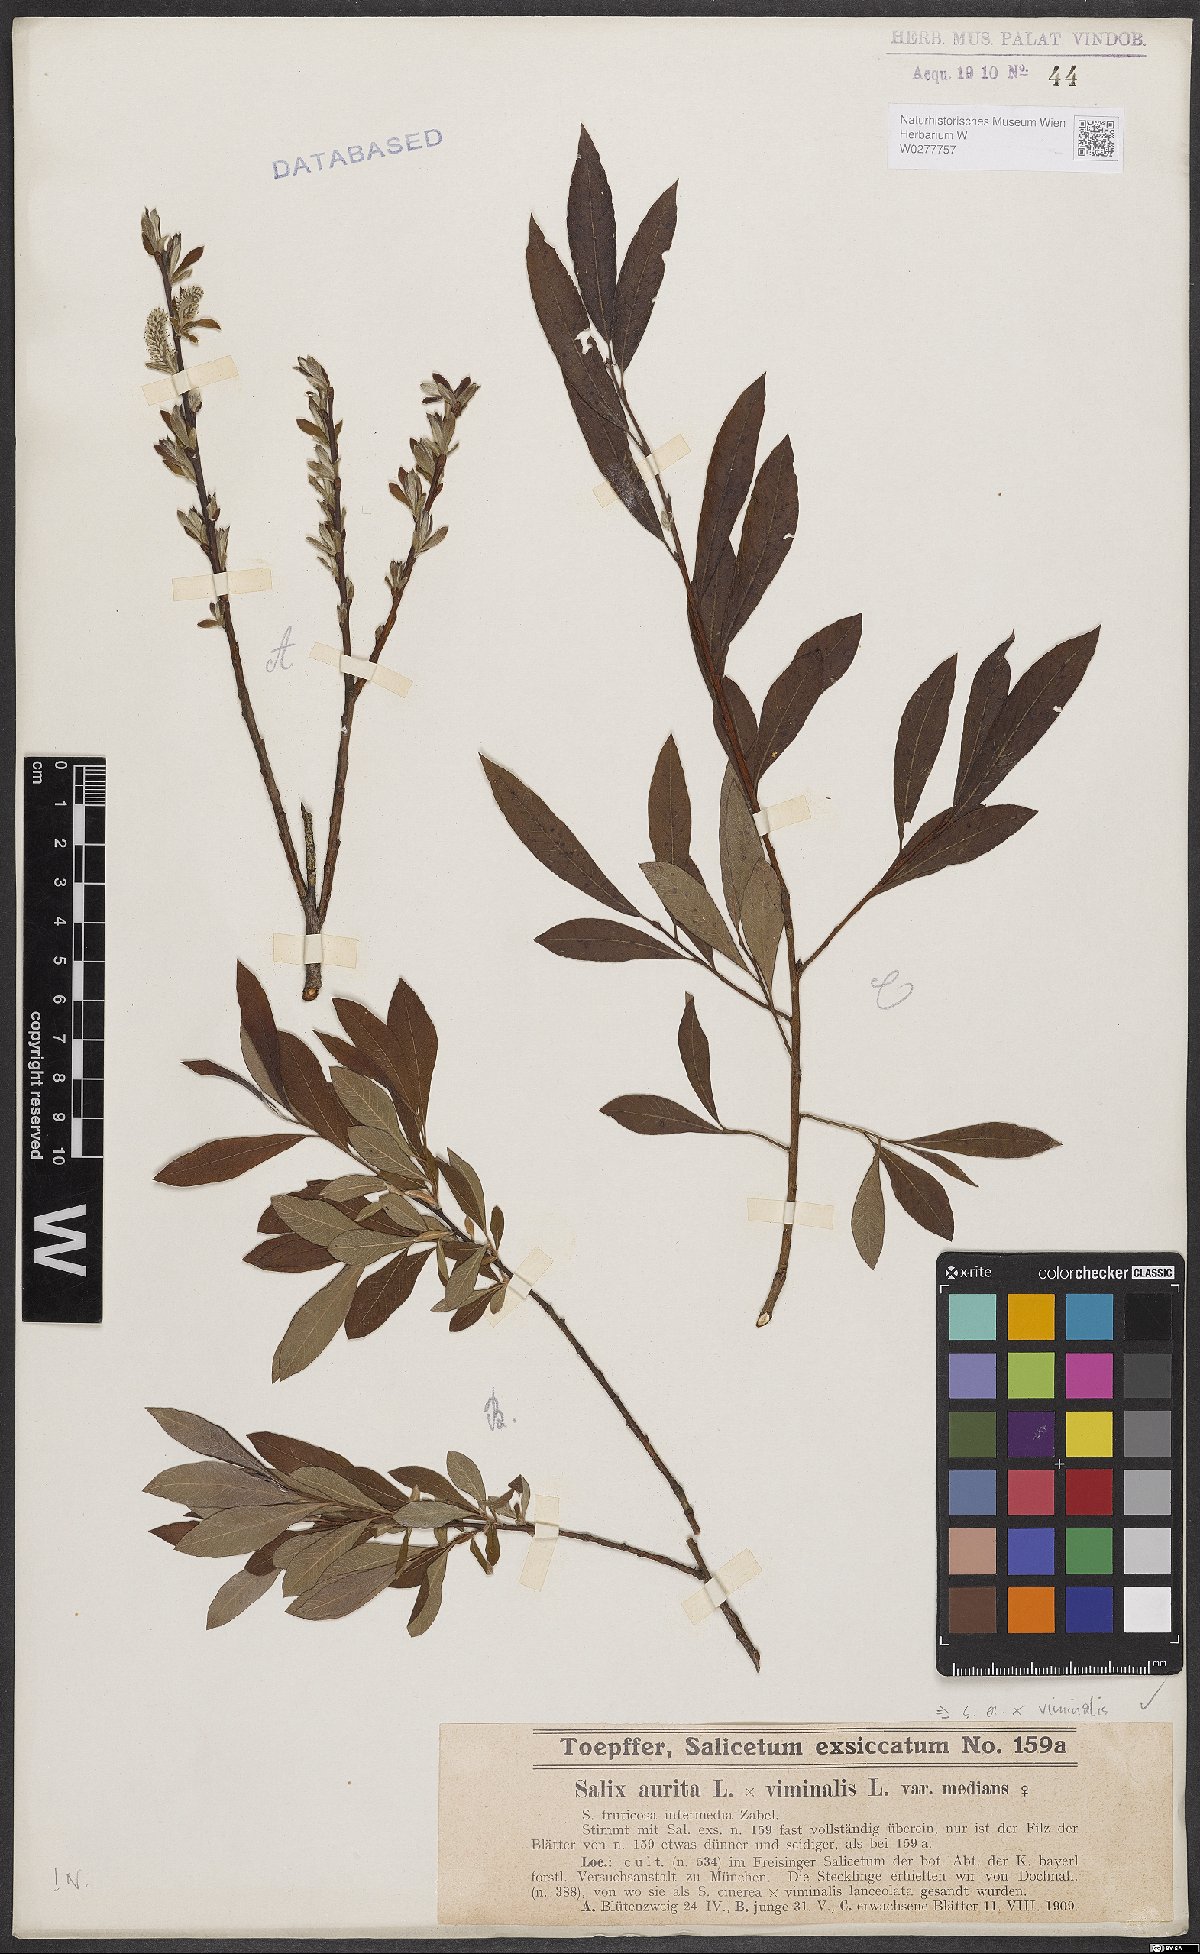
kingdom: Plantae
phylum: Tracheophyta
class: Magnoliopsida
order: Malpighiales
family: Salicaceae
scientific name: Salicaceae
